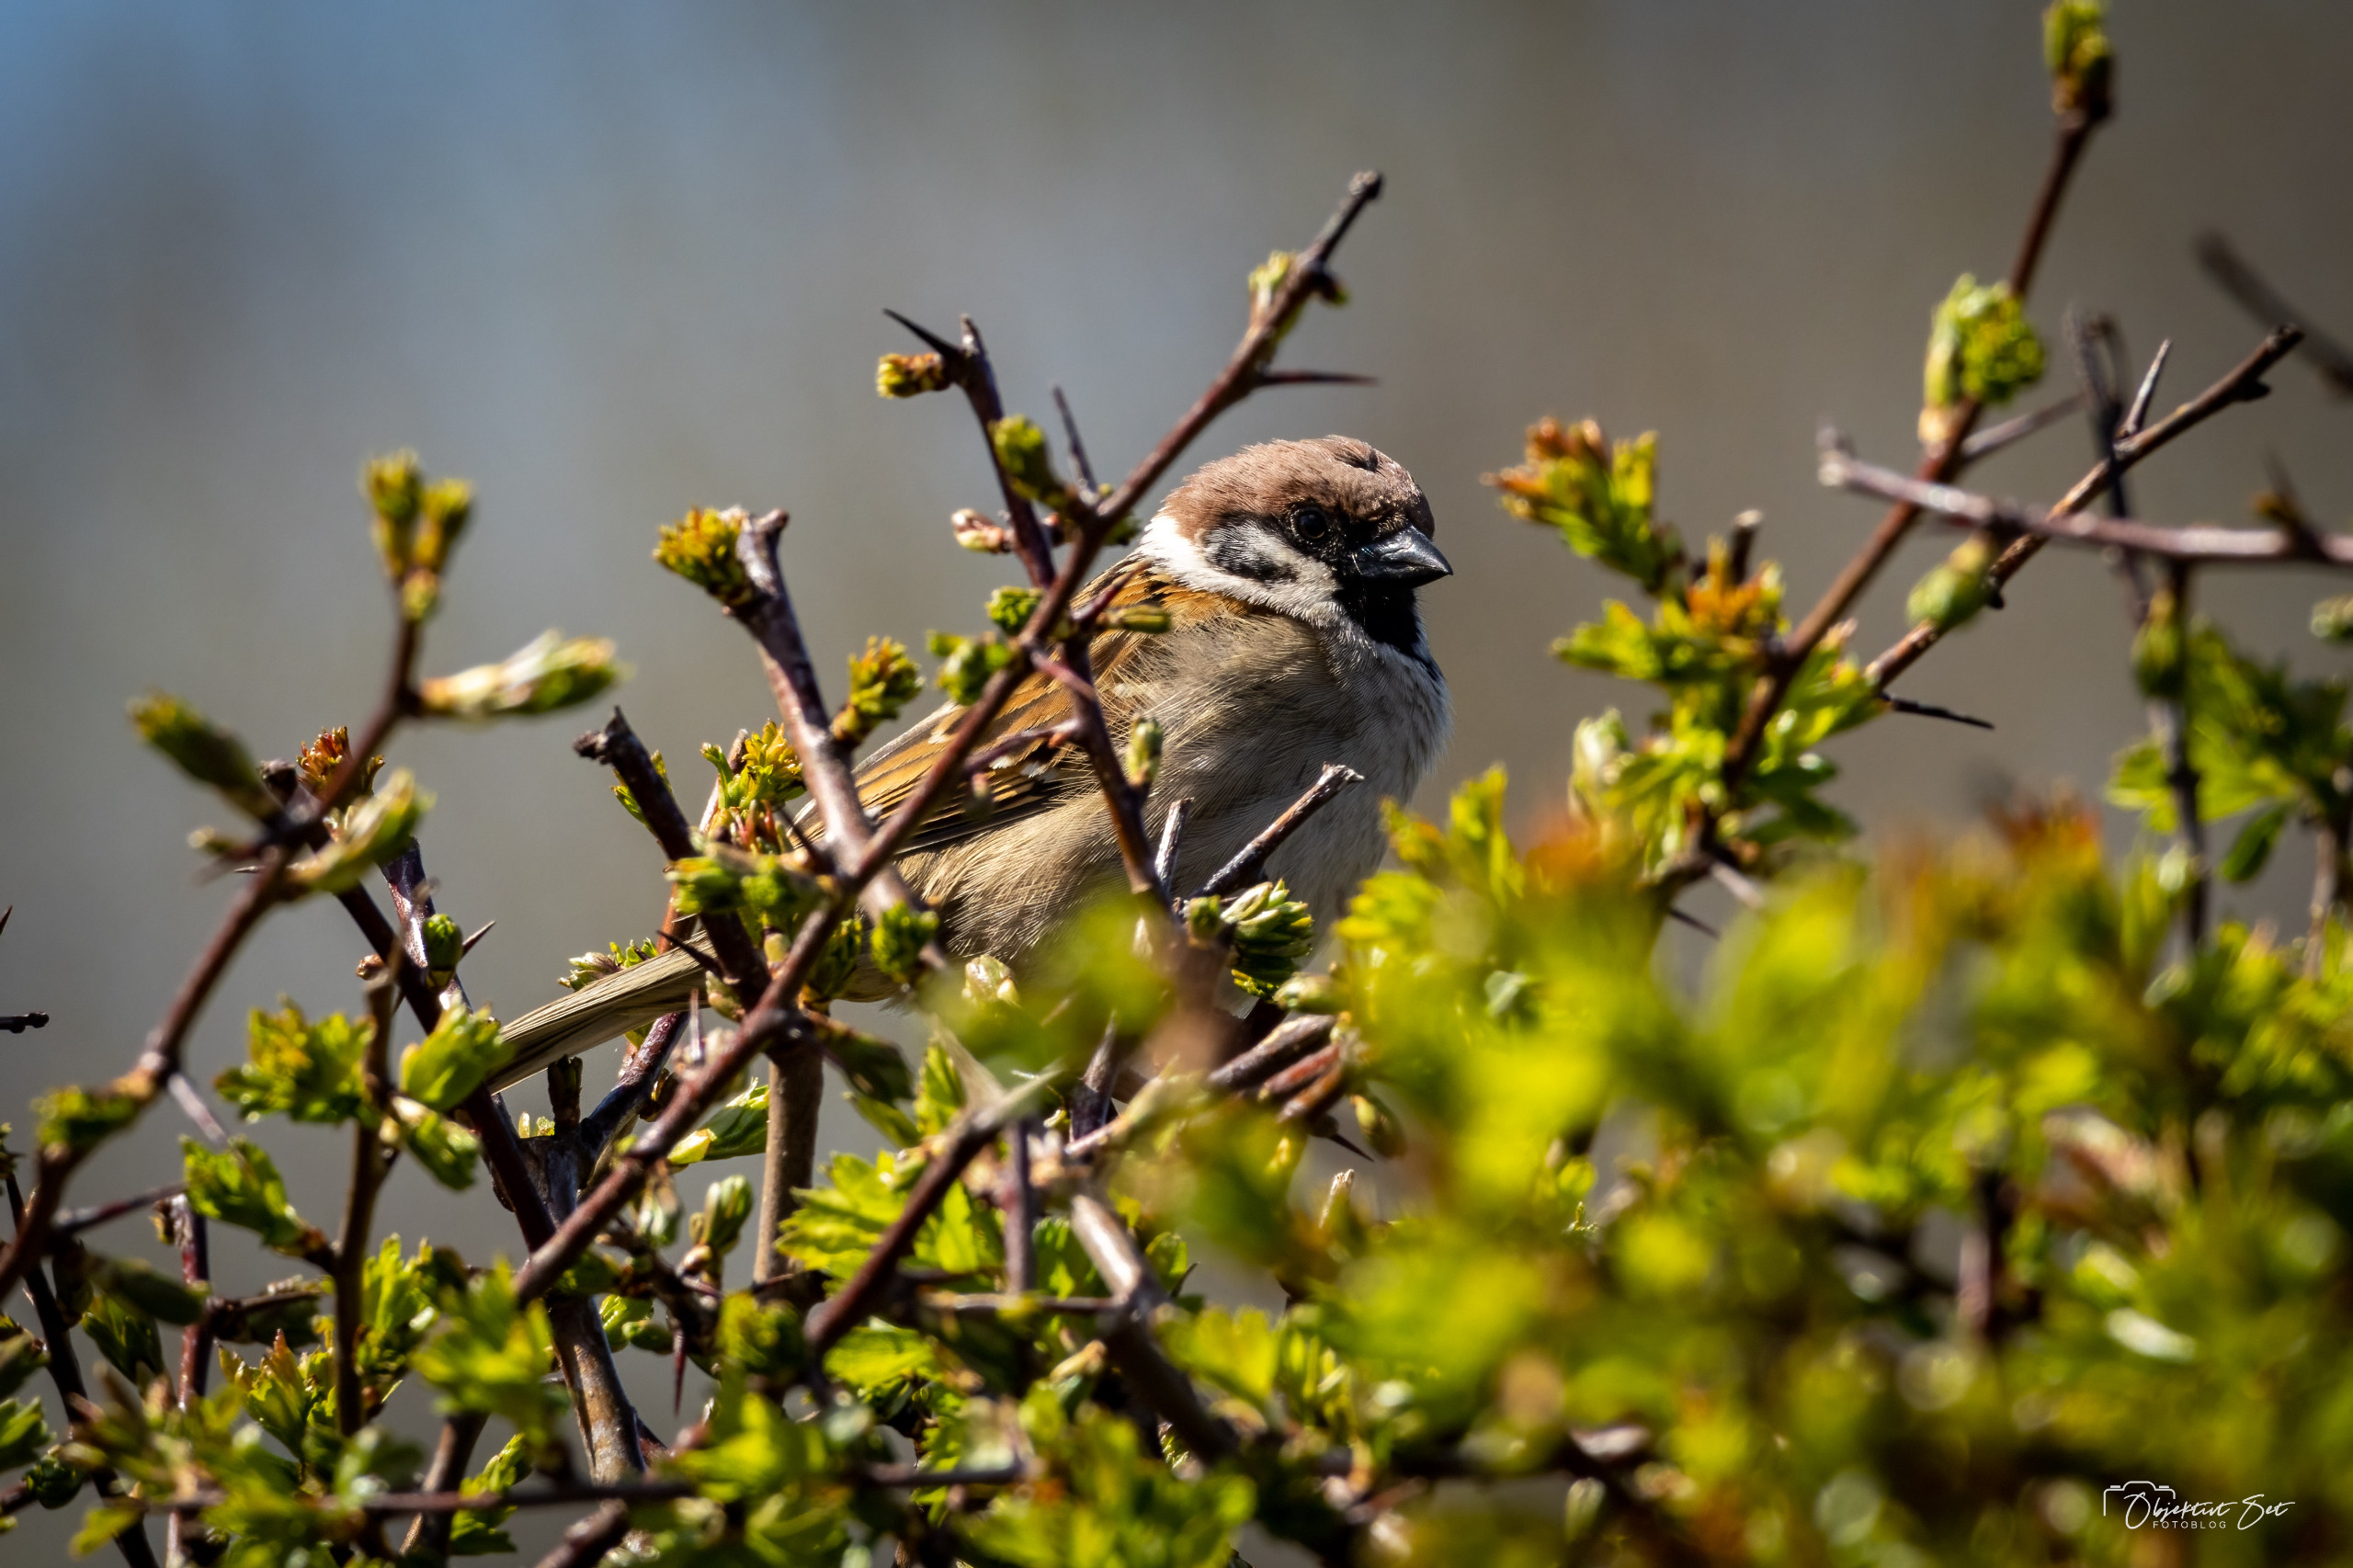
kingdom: Animalia
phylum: Chordata
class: Aves
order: Passeriformes
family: Passeridae
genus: Passer
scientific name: Passer montanus
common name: Skovspurv
